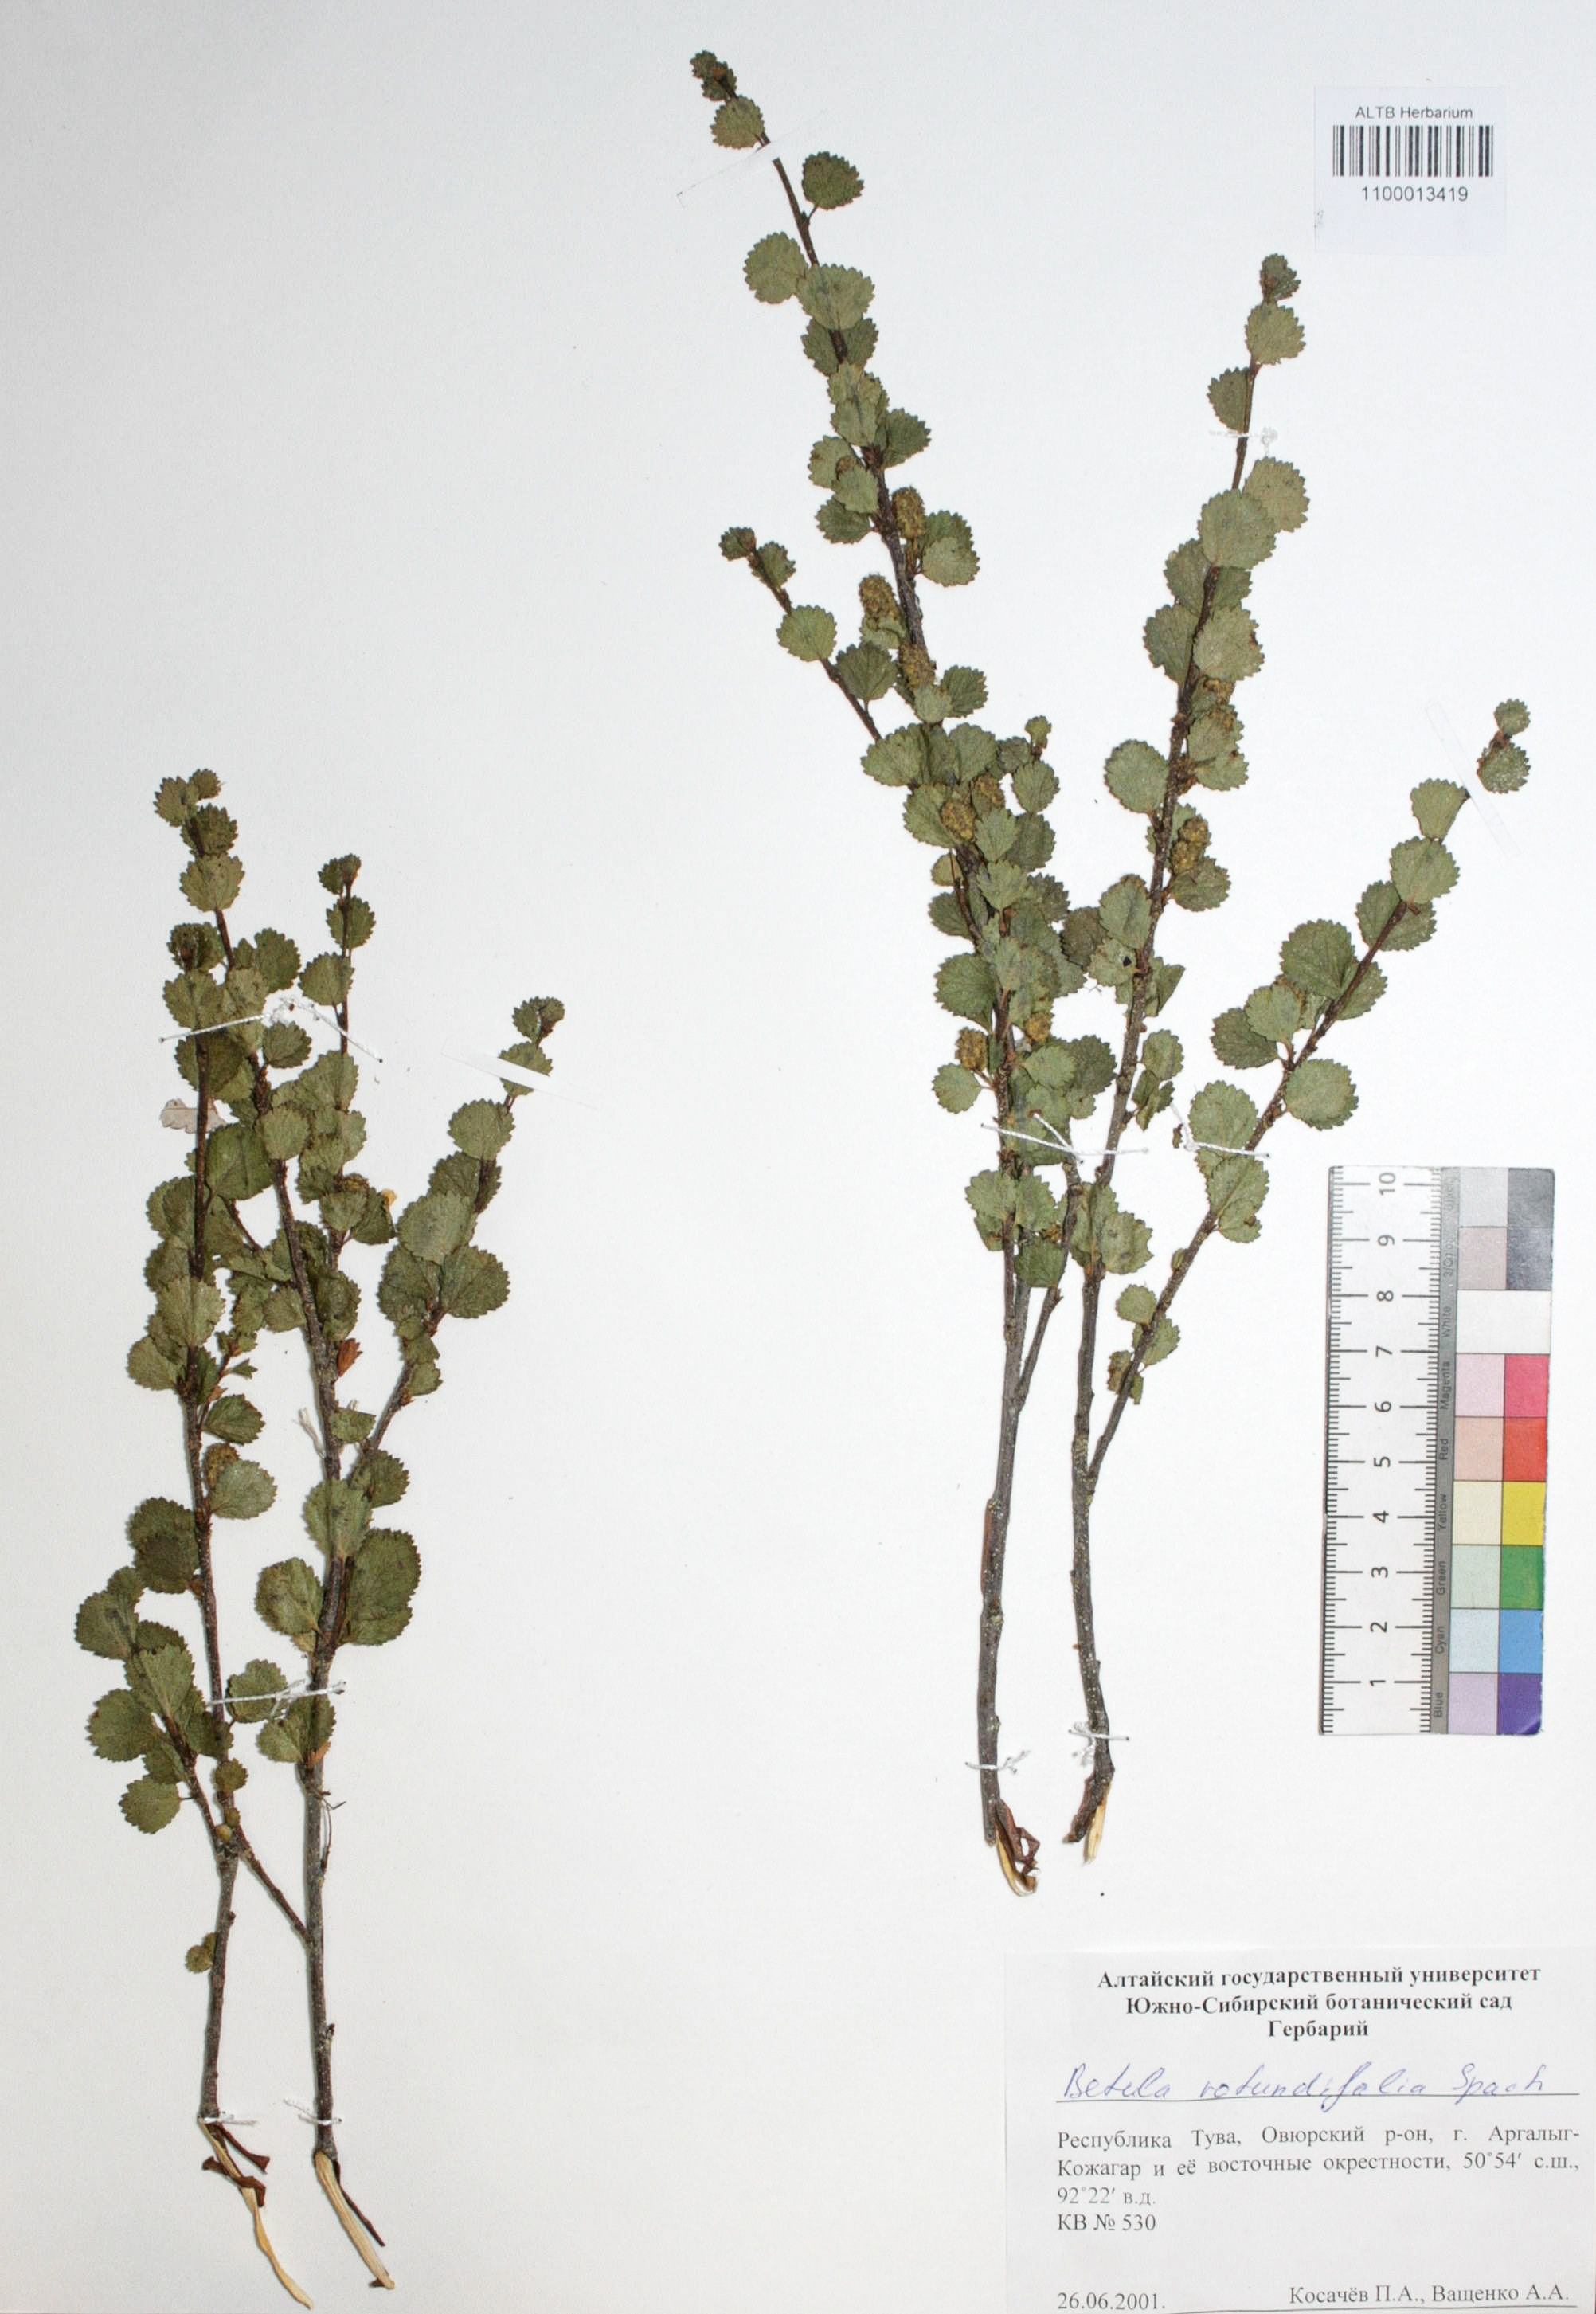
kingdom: Plantae
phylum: Tracheophyta
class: Magnoliopsida
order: Fagales
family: Betulaceae
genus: Betula
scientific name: Betula glandulosa
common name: Dwarf birch
